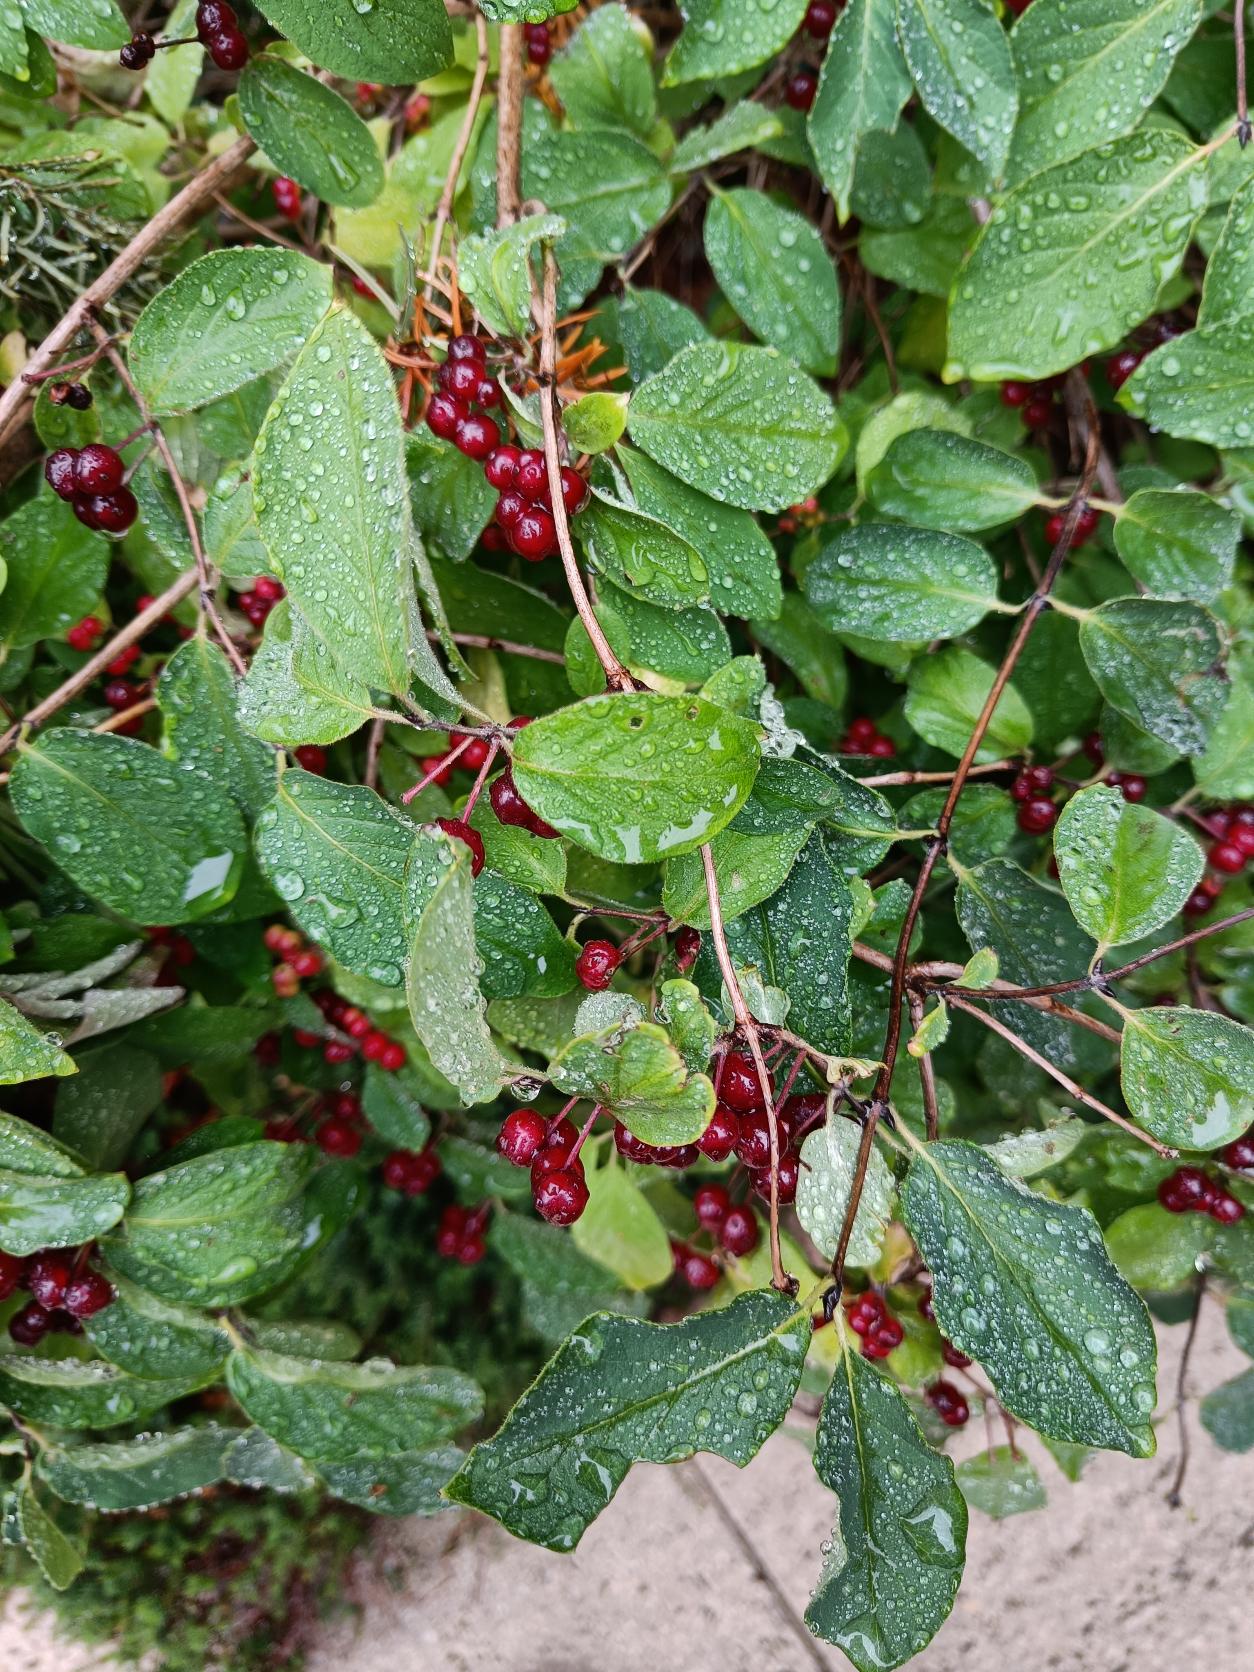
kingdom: Plantae
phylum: Tracheophyta
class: Magnoliopsida
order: Dipsacales
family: Caprifoliaceae
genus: Lonicera
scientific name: Lonicera xylosteum
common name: Dunet gedeblad
